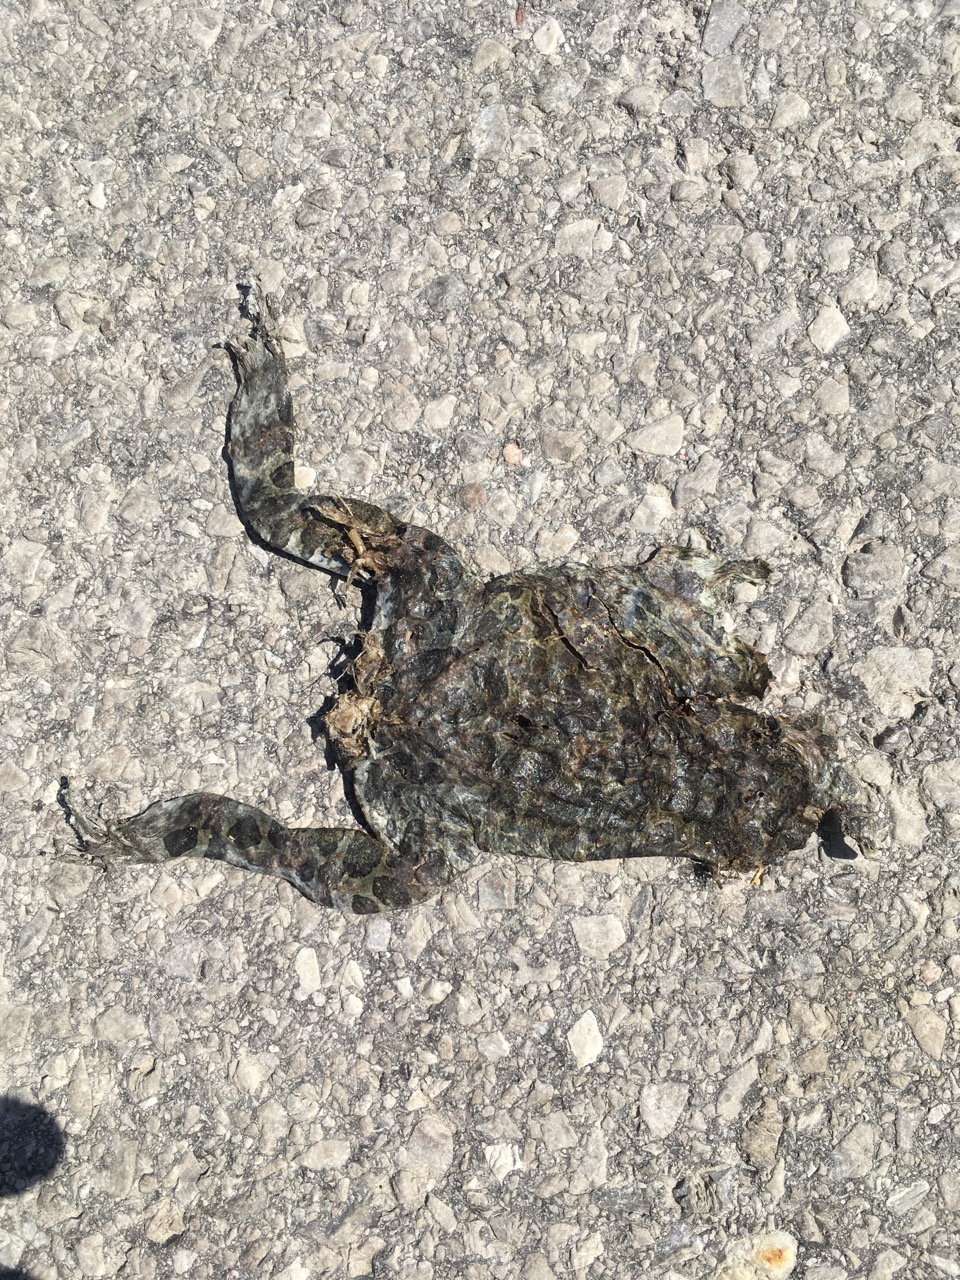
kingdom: Animalia
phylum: Chordata
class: Amphibia
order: Anura
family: Bufonidae
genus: Bufotes
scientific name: Bufotes viridis
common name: European green toad
